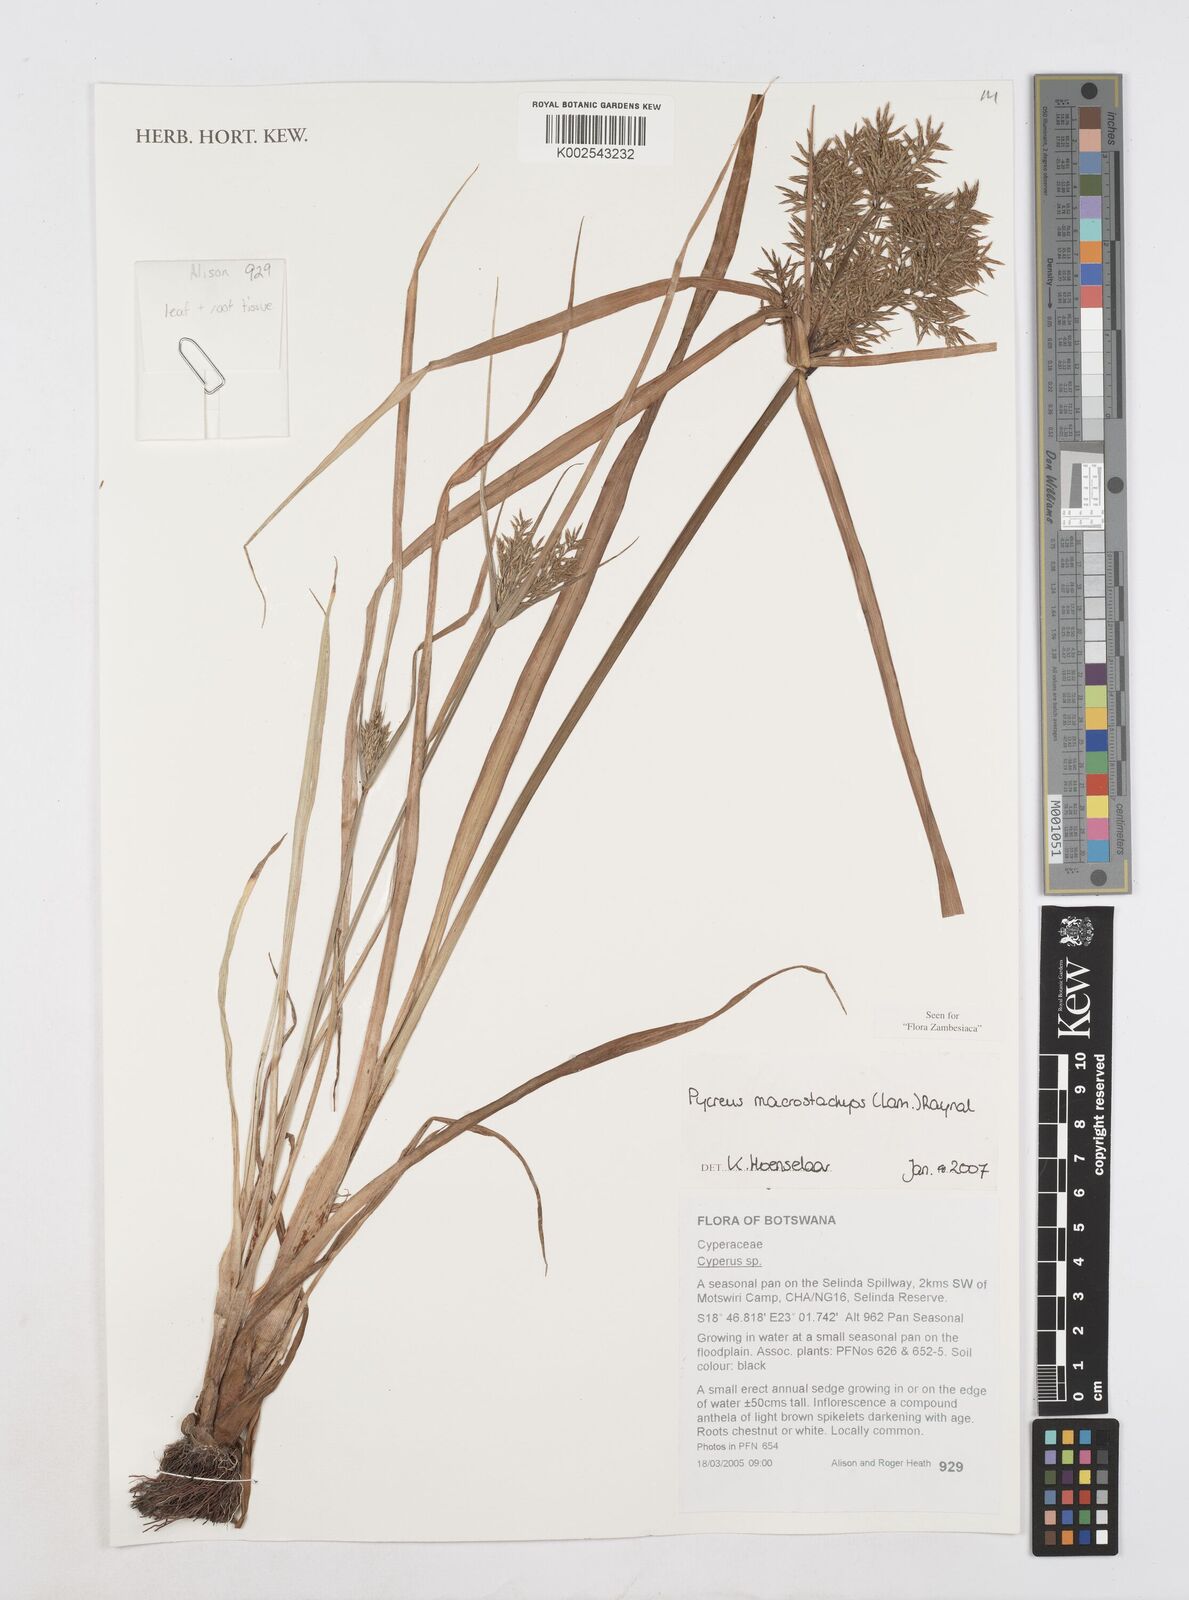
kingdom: Plantae
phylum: Tracheophyta
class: Liliopsida
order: Poales
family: Cyperaceae
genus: Cyperus
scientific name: Cyperus macrostachyos
